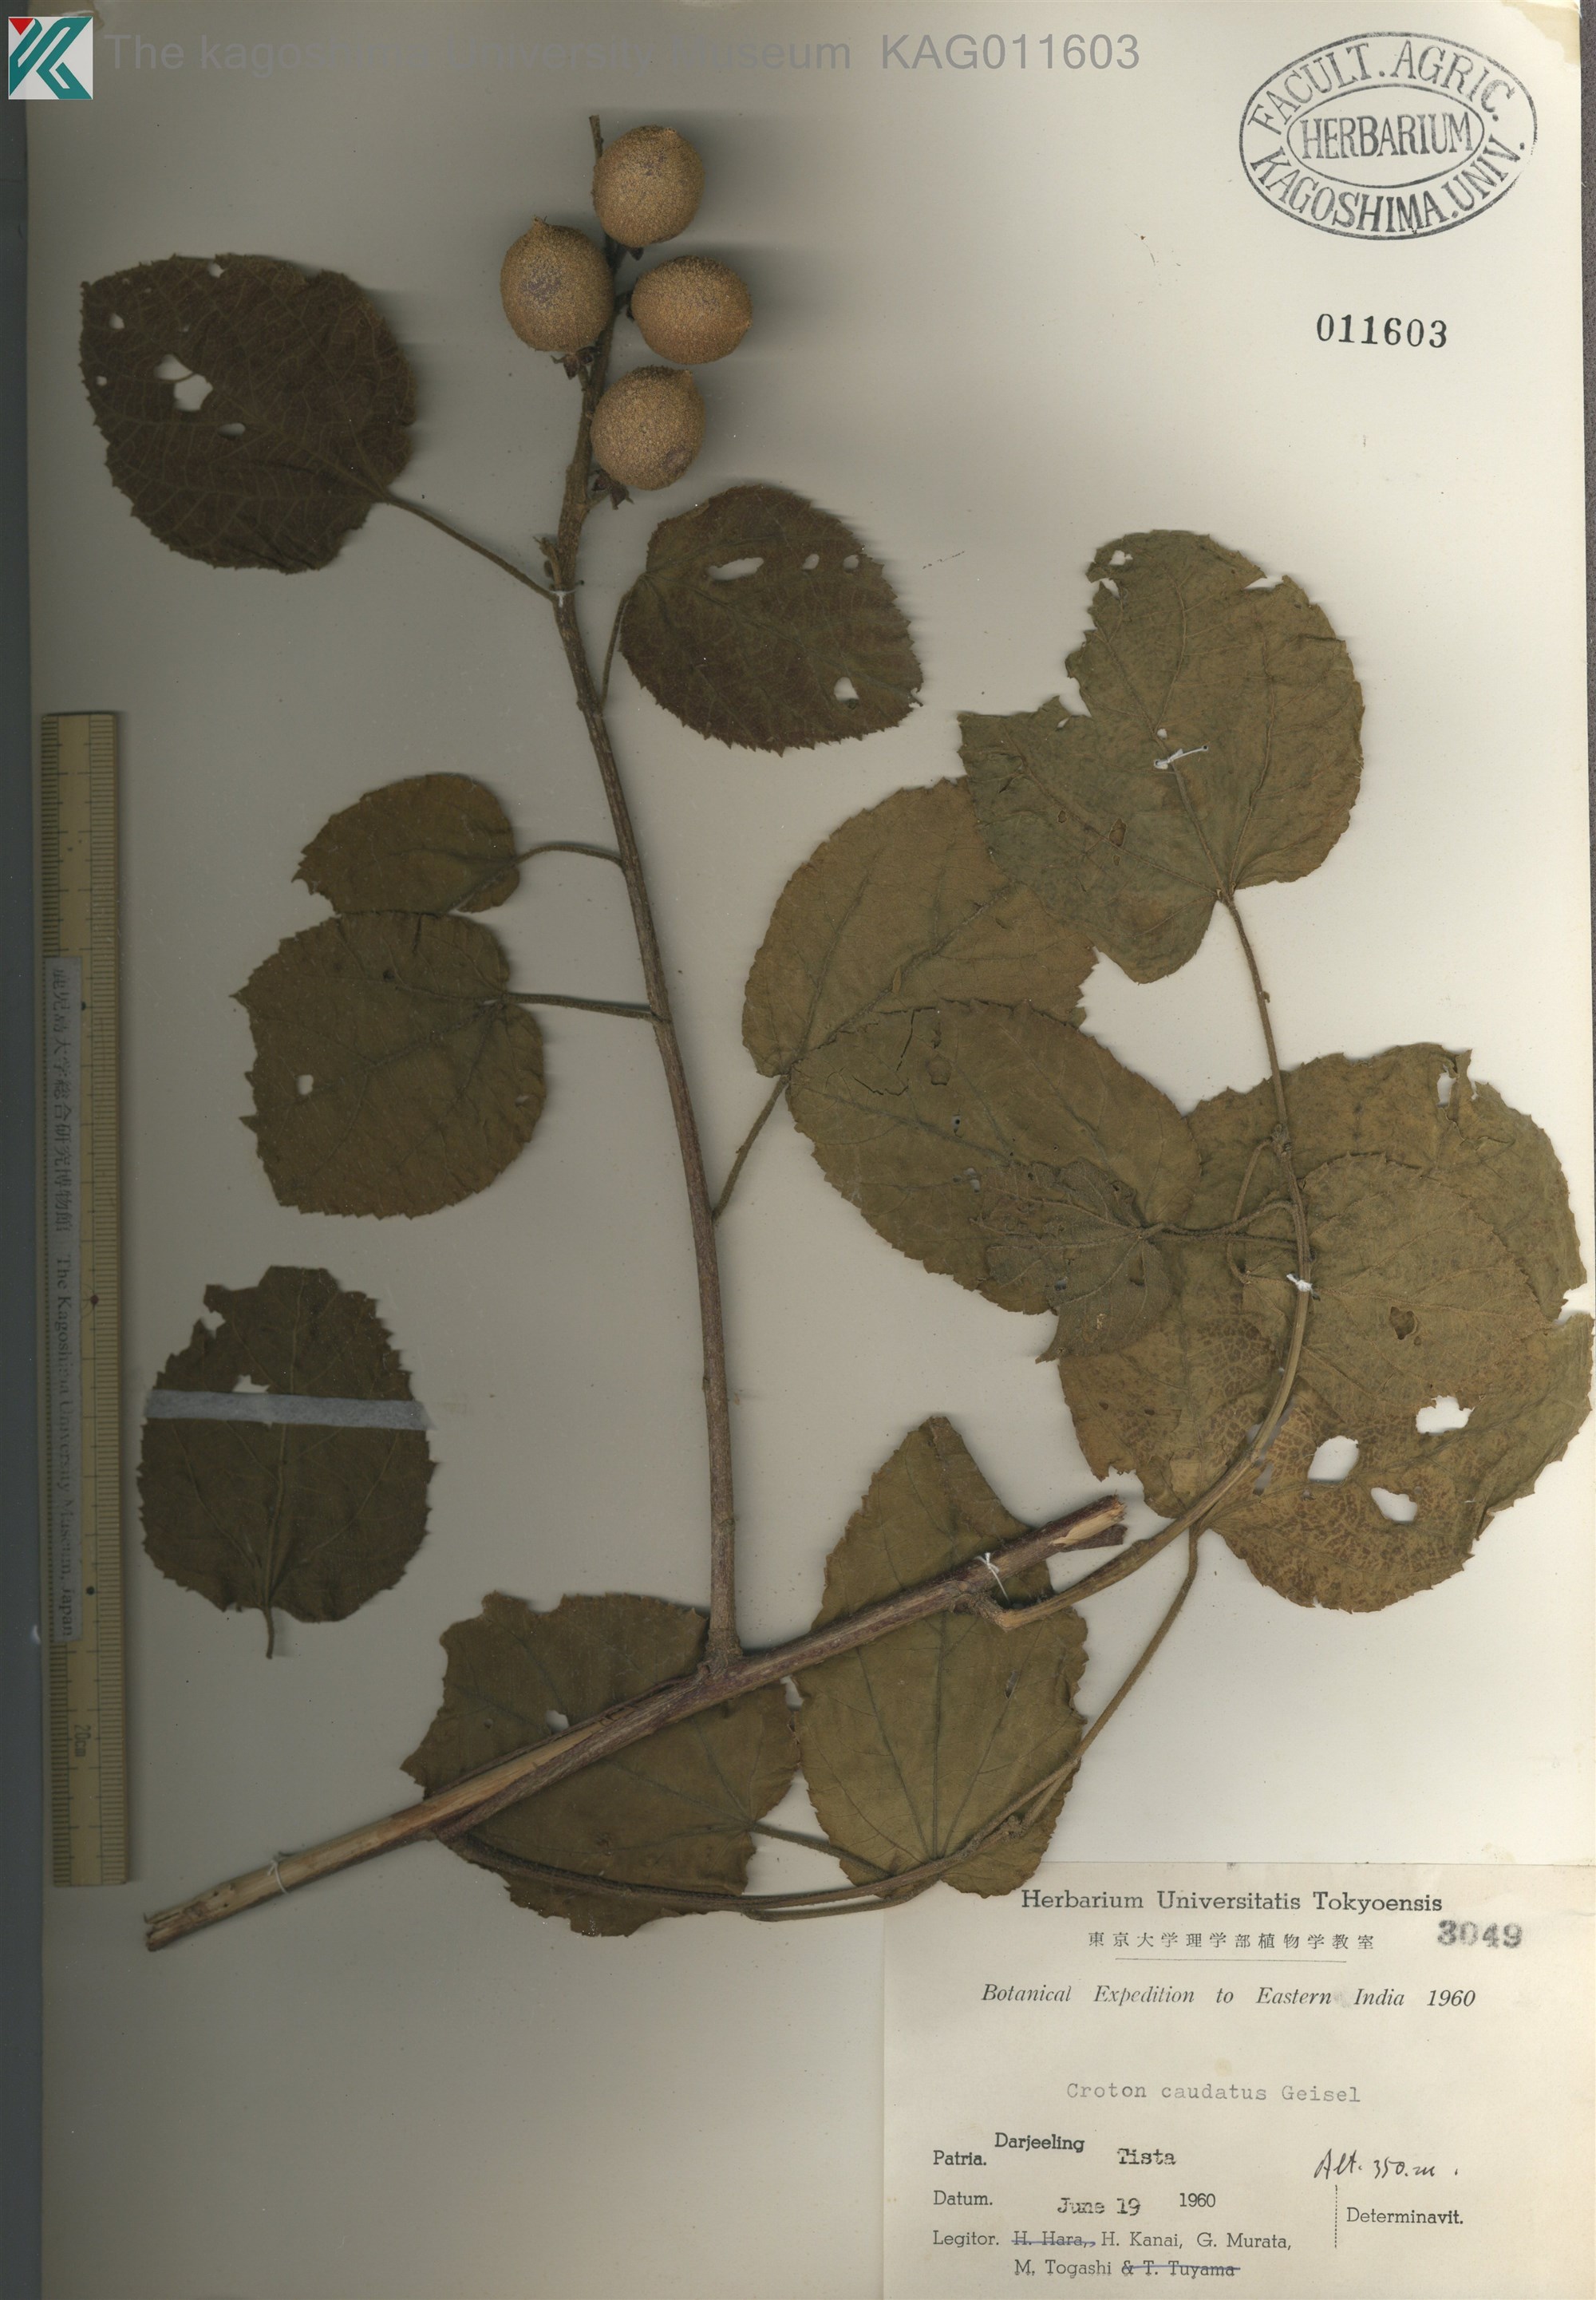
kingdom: Plantae
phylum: Tracheophyta
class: Magnoliopsida
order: Malpighiales
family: Euphorbiaceae
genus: Croton
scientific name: Croton caudatus
